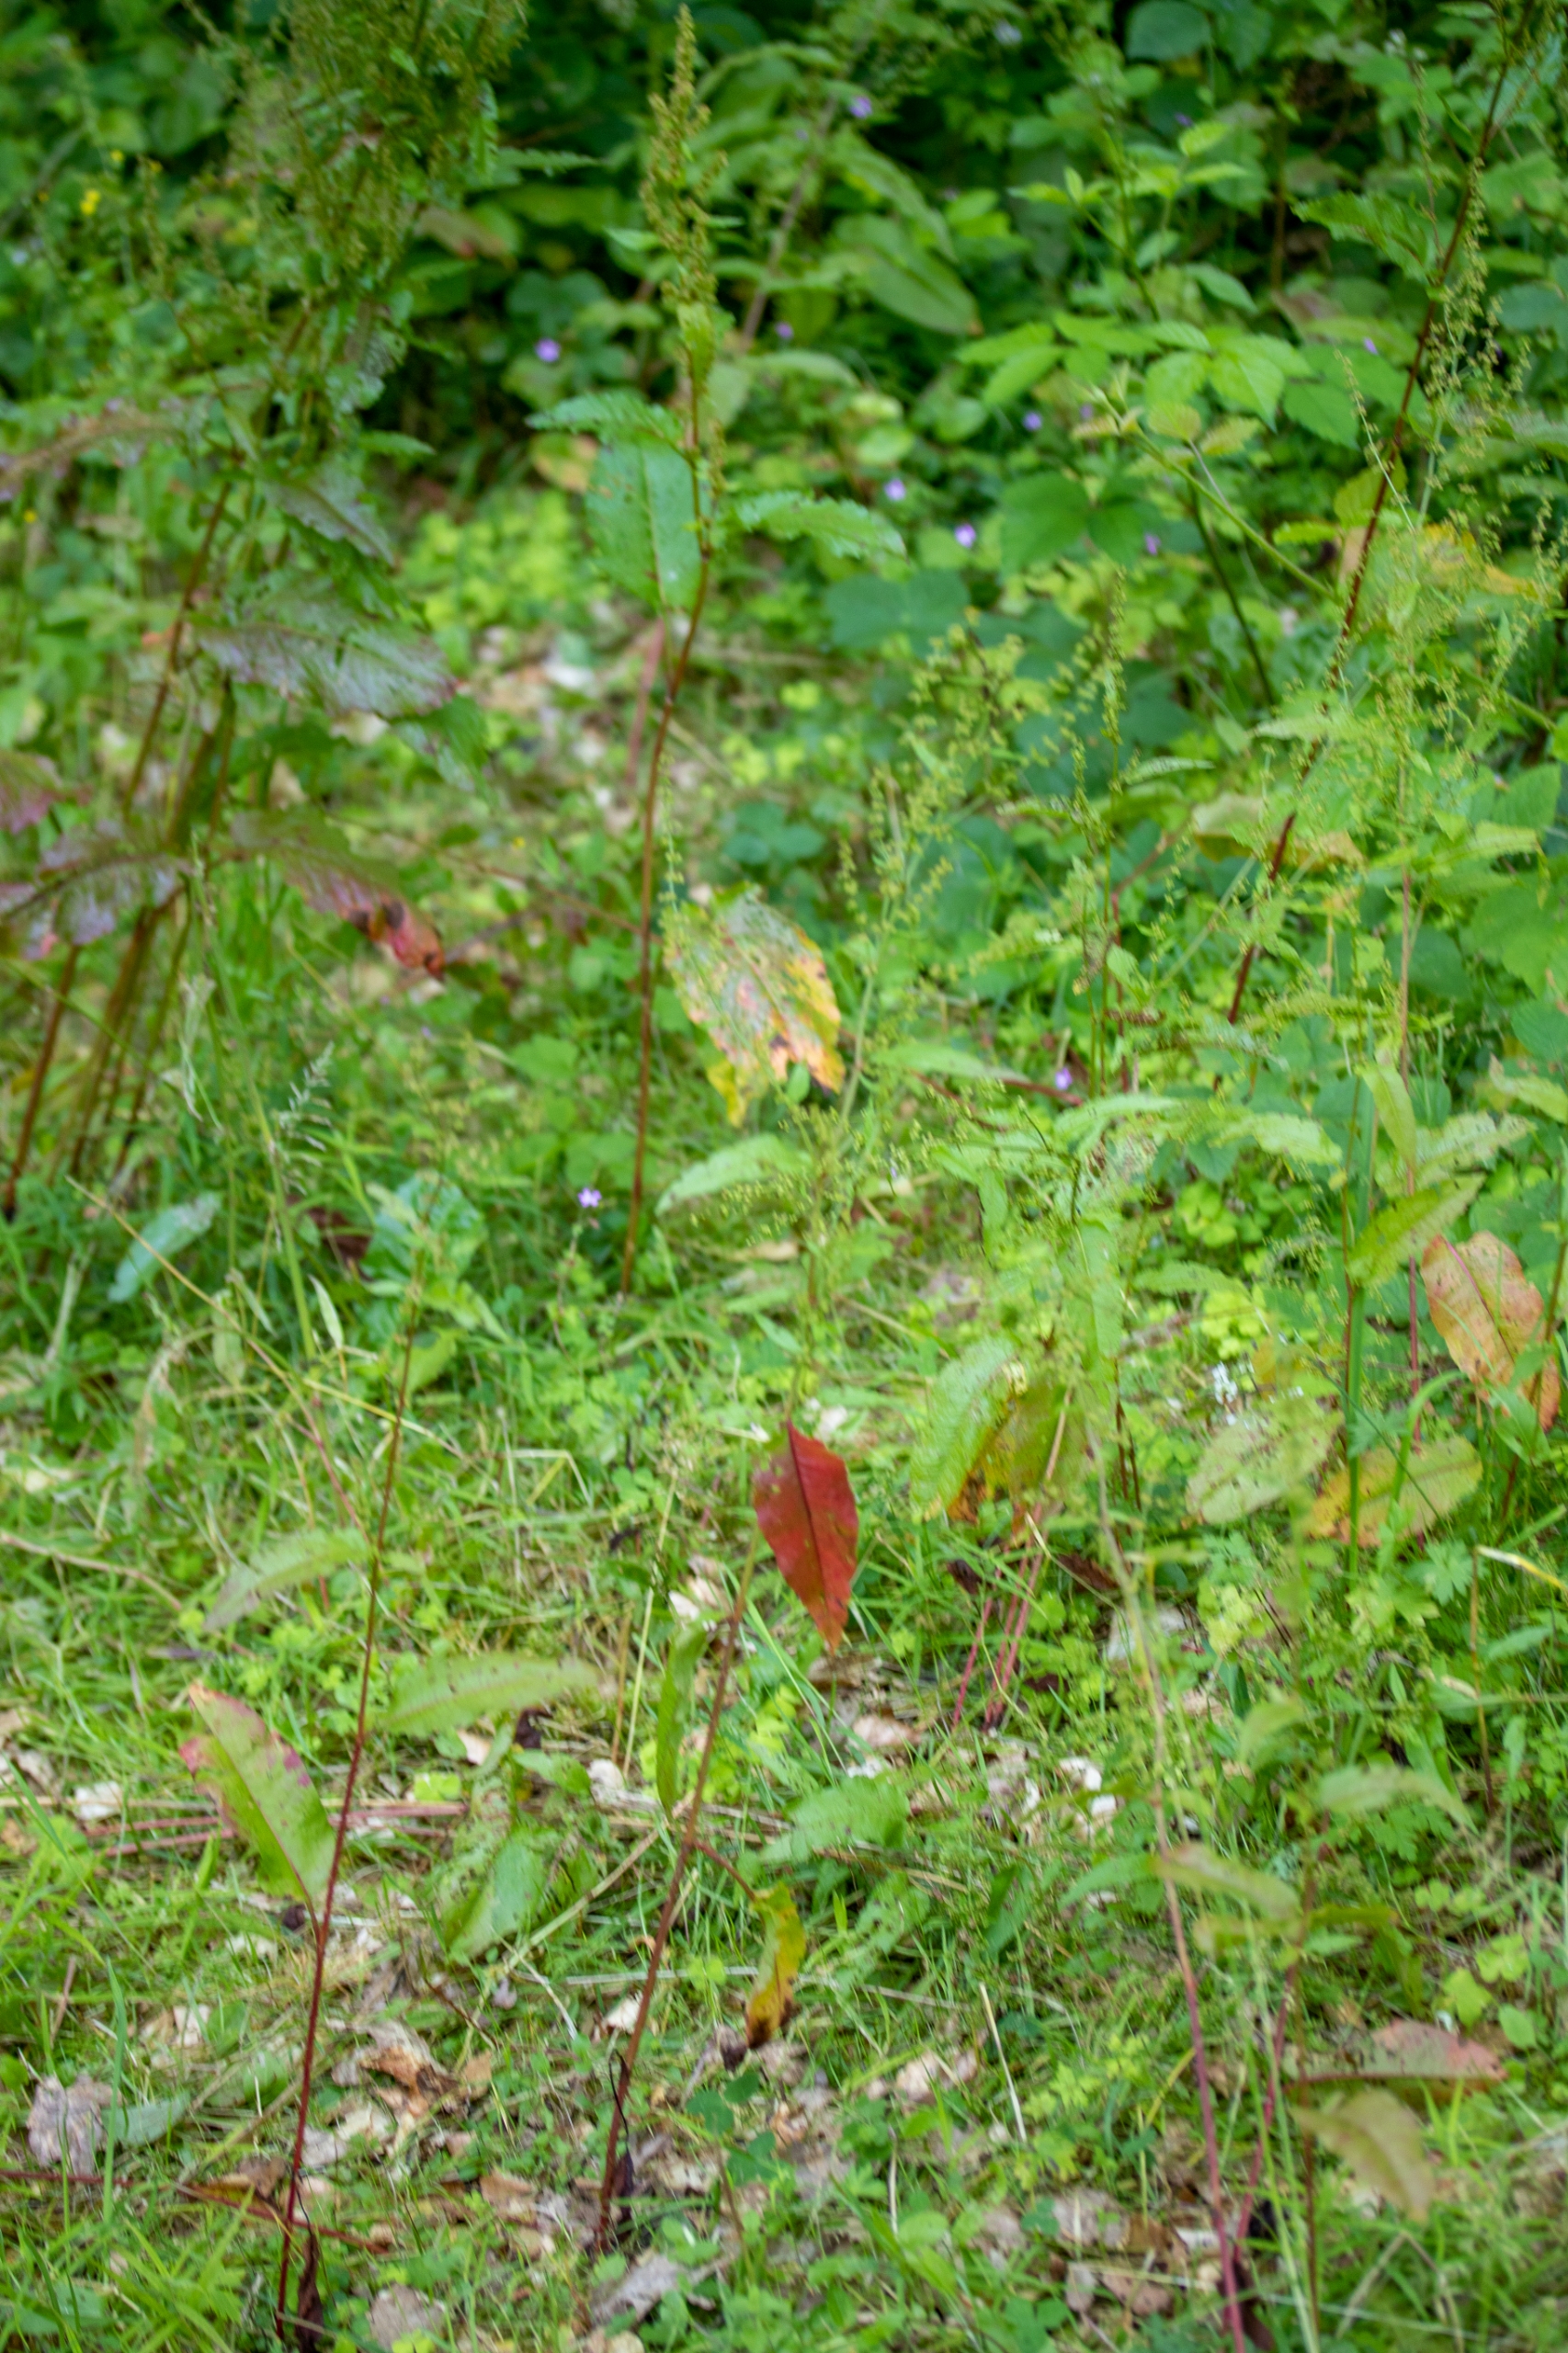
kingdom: Plantae
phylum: Tracheophyta
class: Magnoliopsida
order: Caryophyllales
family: Polygonaceae
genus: Rumex
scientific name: Rumex sanguineus
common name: Skov-skræppe
